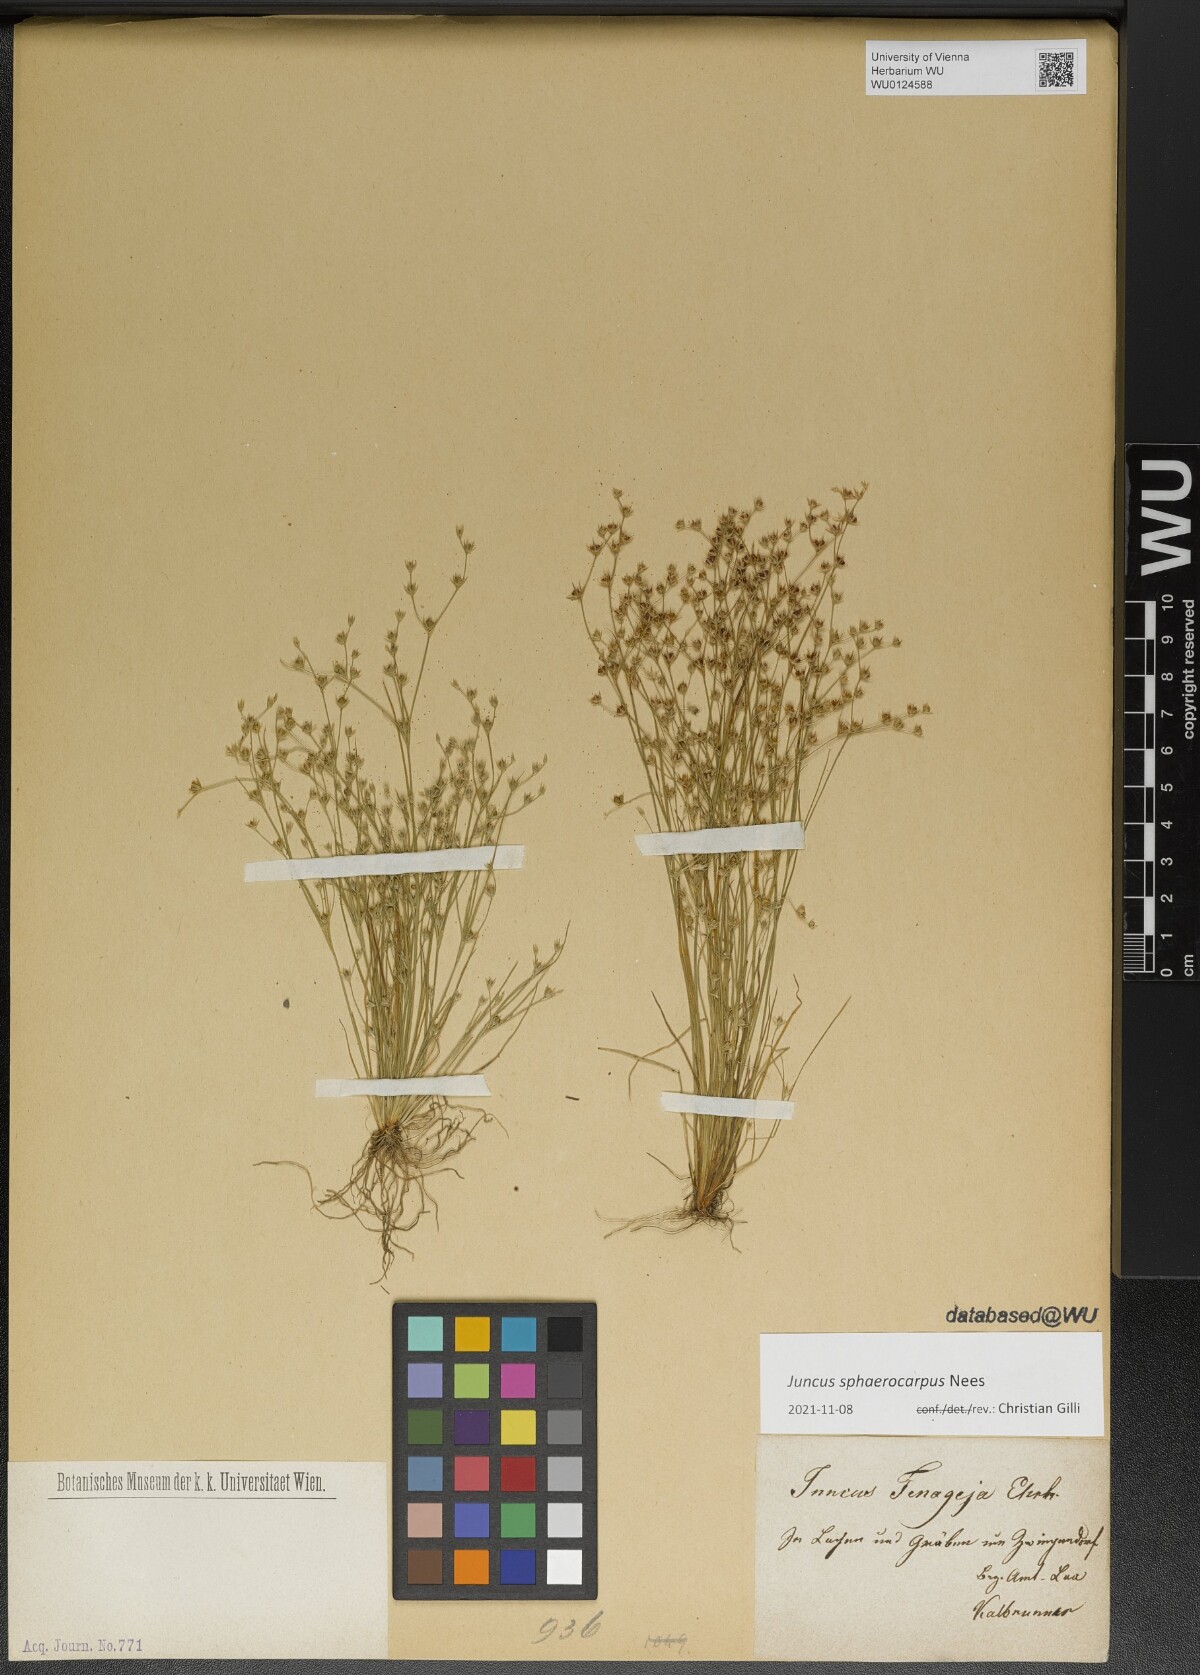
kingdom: Plantae
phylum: Tracheophyta
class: Liliopsida
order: Poales
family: Juncaceae
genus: Juncus
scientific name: Juncus sphaerocarpus
